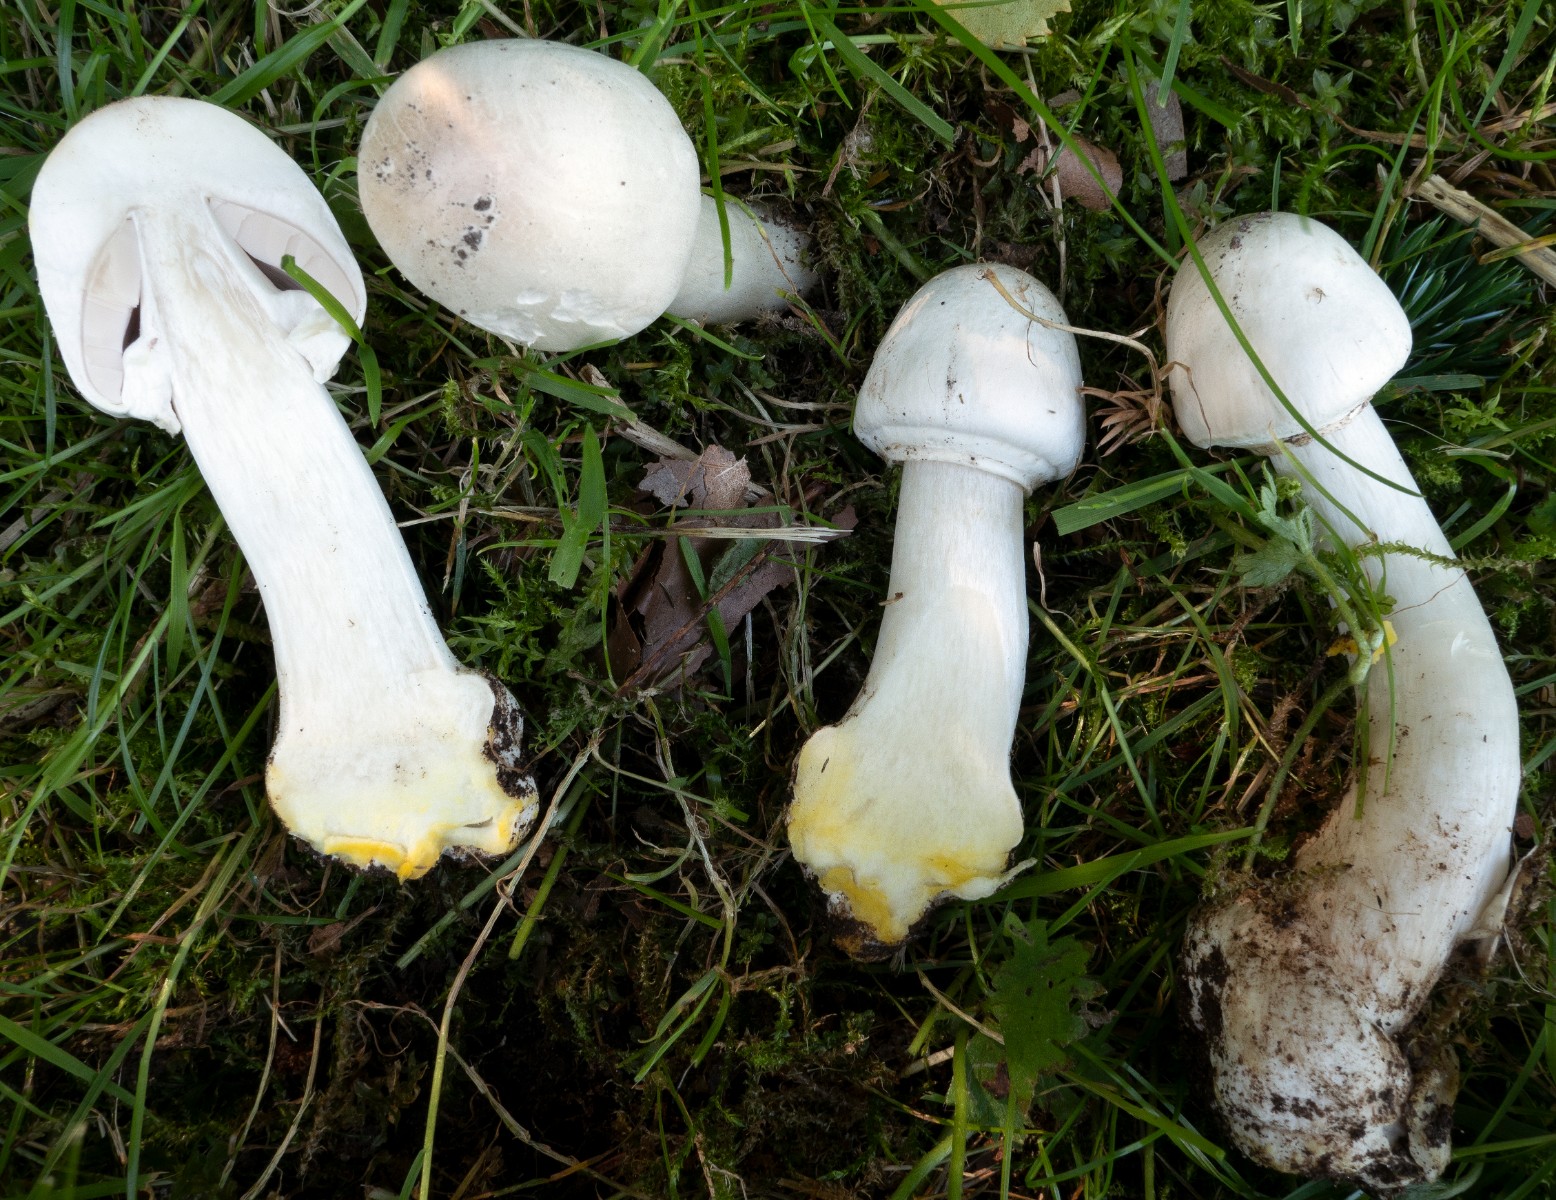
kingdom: Fungi
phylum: Basidiomycota
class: Agaricomycetes
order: Agaricales
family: Agaricaceae
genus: Agaricus
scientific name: Agaricus xanthodermus
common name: karbol-champignon
